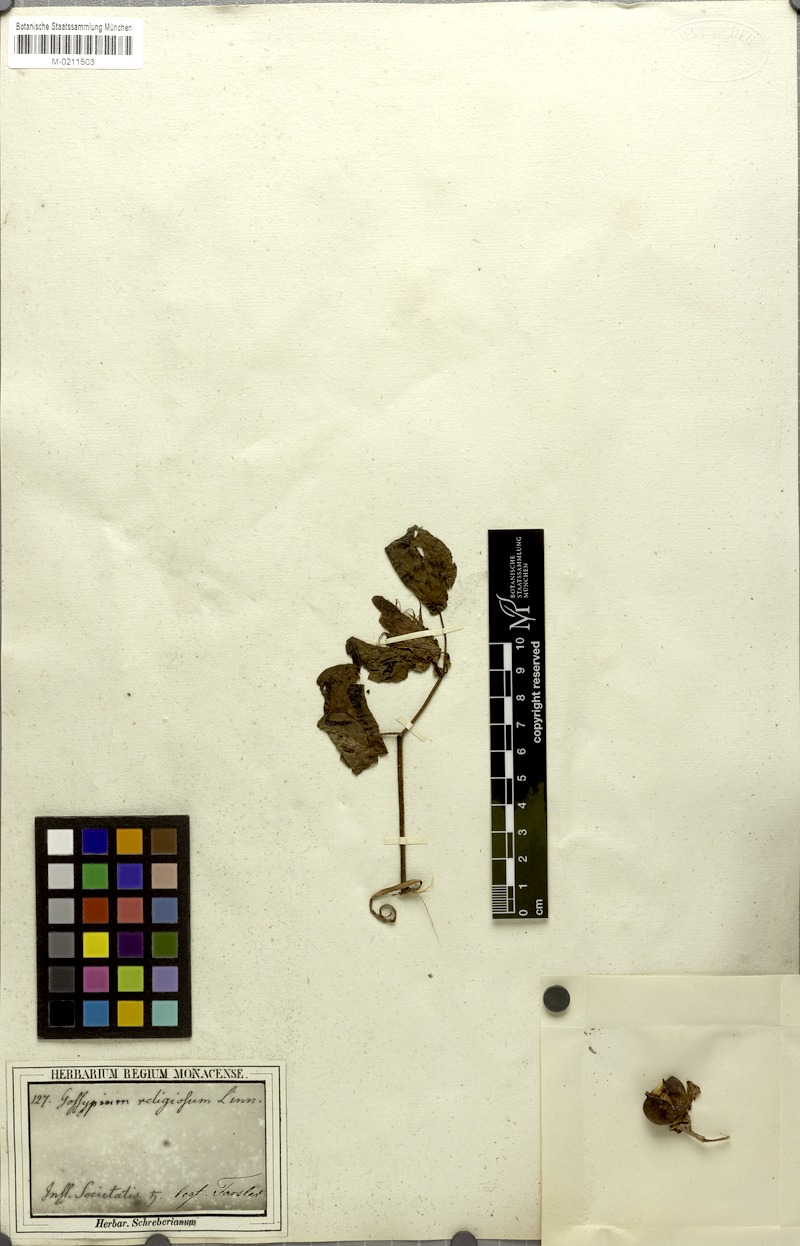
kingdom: Plantae
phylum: Tracheophyta
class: Magnoliopsida
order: Malvales
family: Malvaceae
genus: Gossypium
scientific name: Gossypium hirsutum
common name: Cotton
